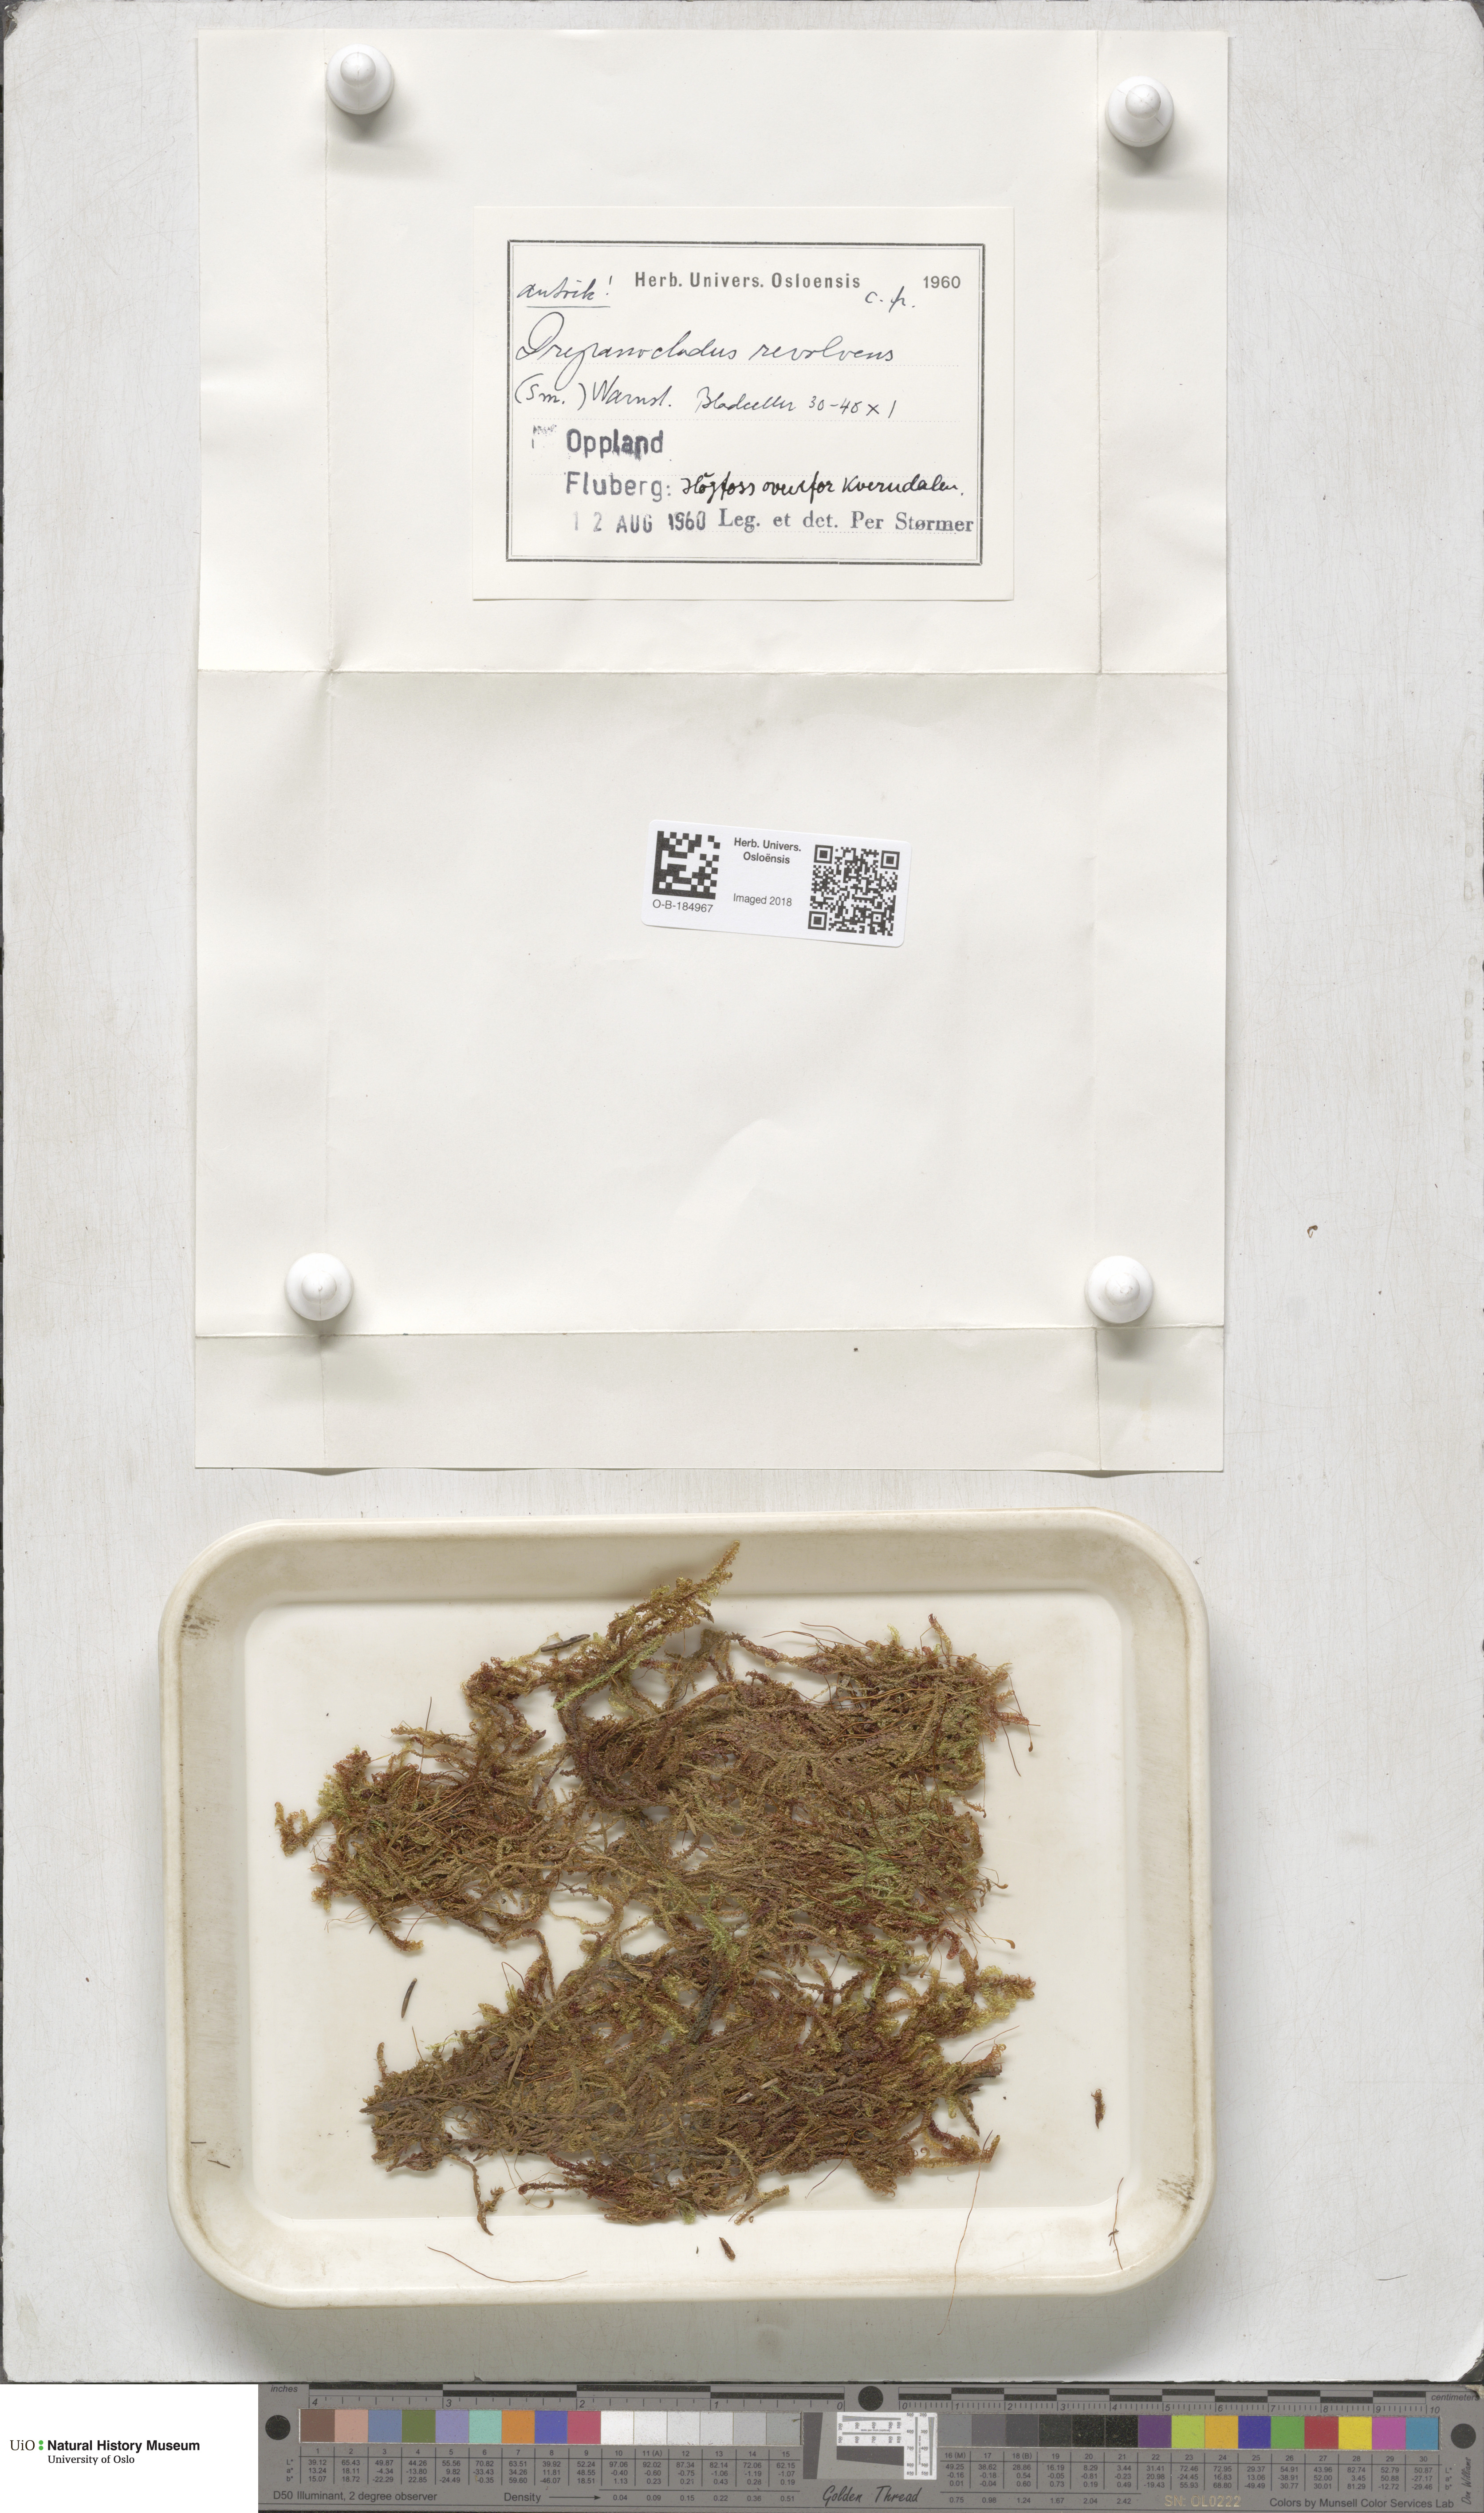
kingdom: Plantae
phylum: Bryophyta
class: Bryopsida
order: Hypnales
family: Scorpidiaceae
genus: Scorpidium
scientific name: Scorpidium revolvens
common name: Rusty hook moss
